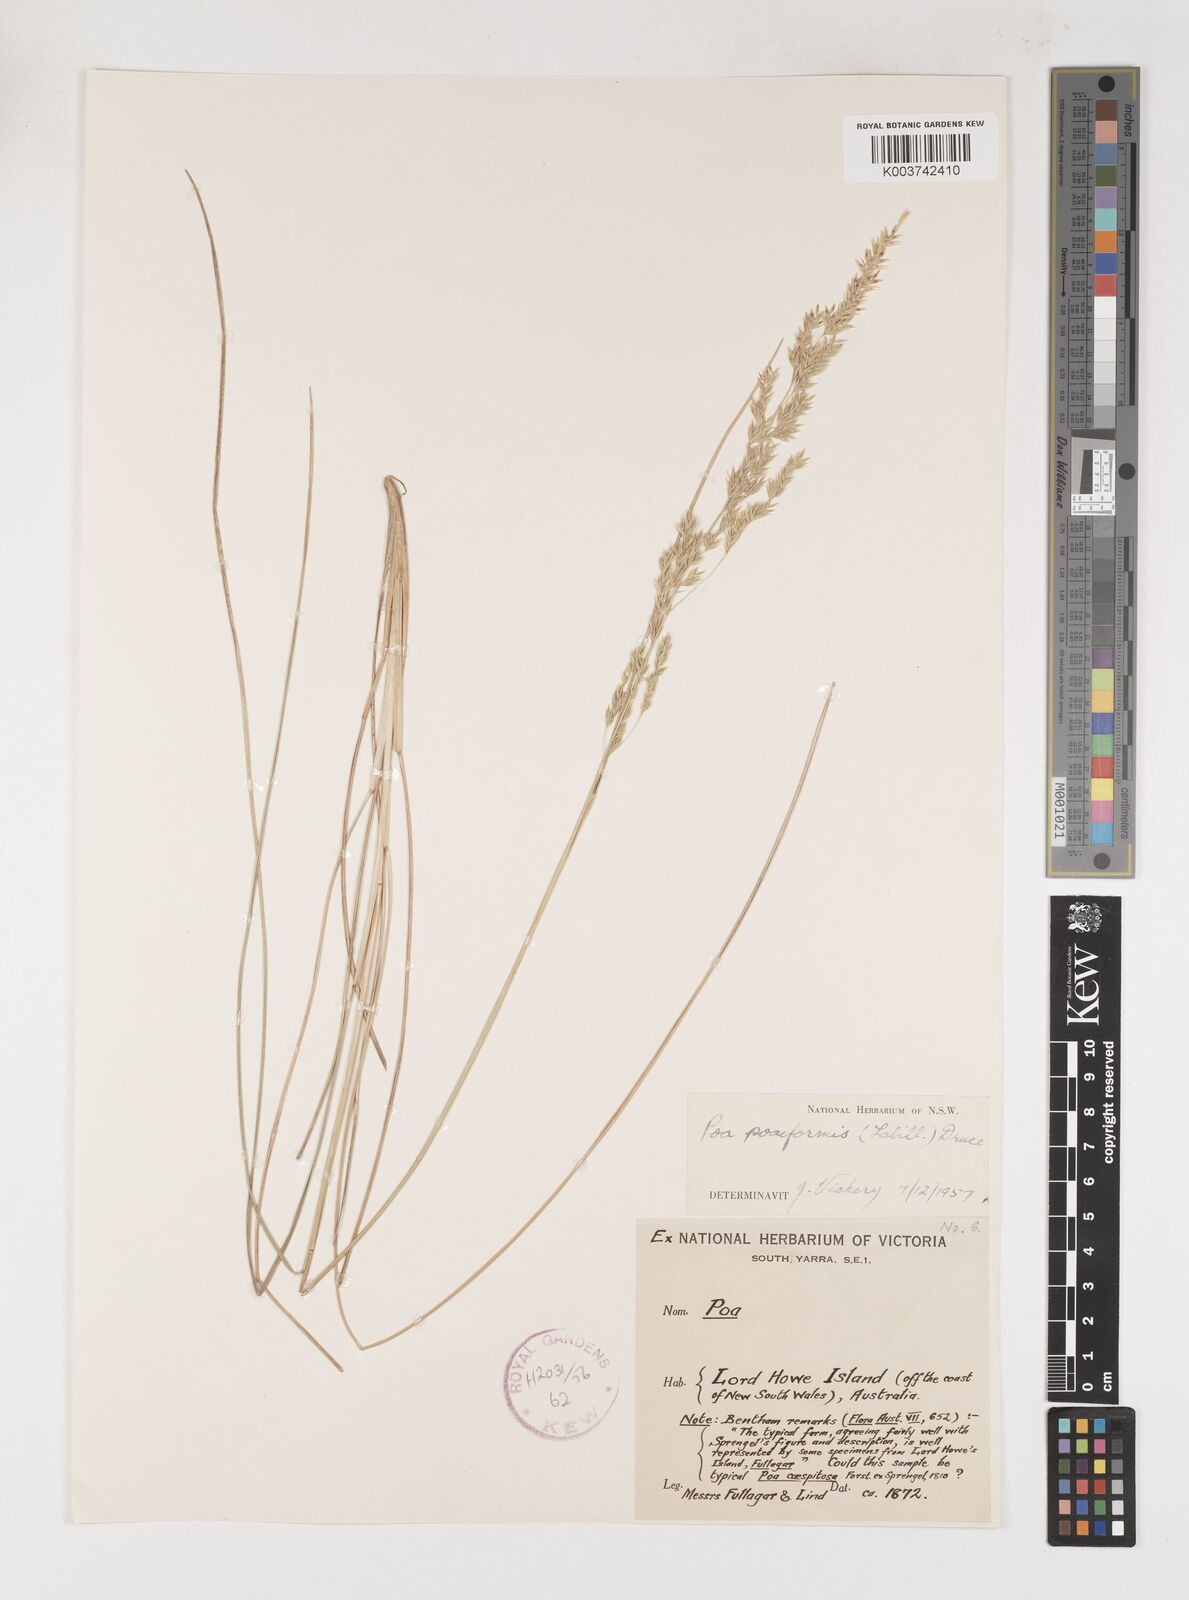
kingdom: Plantae
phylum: Tracheophyta
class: Liliopsida
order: Poales
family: Poaceae
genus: Poa
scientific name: Poa poiformis
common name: Tussock poa
